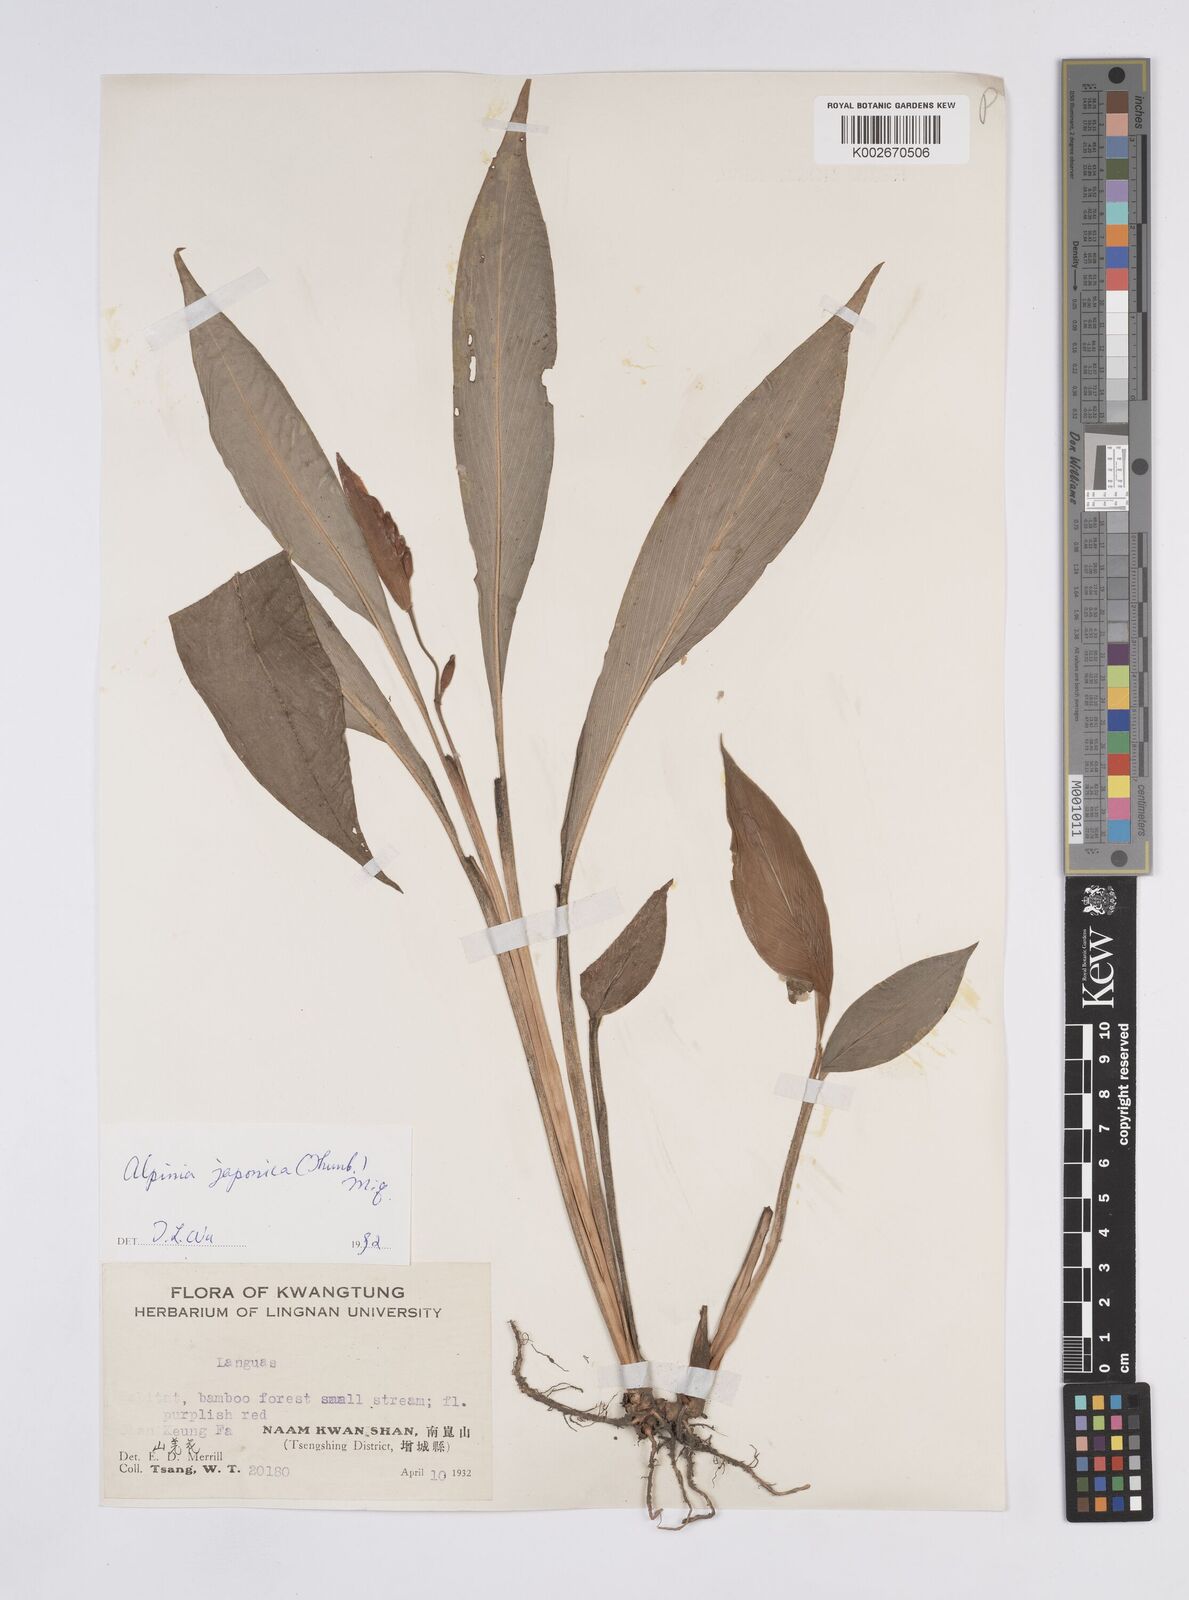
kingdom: Plantae
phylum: Tracheophyta
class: Liliopsida
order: Zingiberales
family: Zingiberaceae
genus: Alpinia
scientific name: Alpinia japonica
